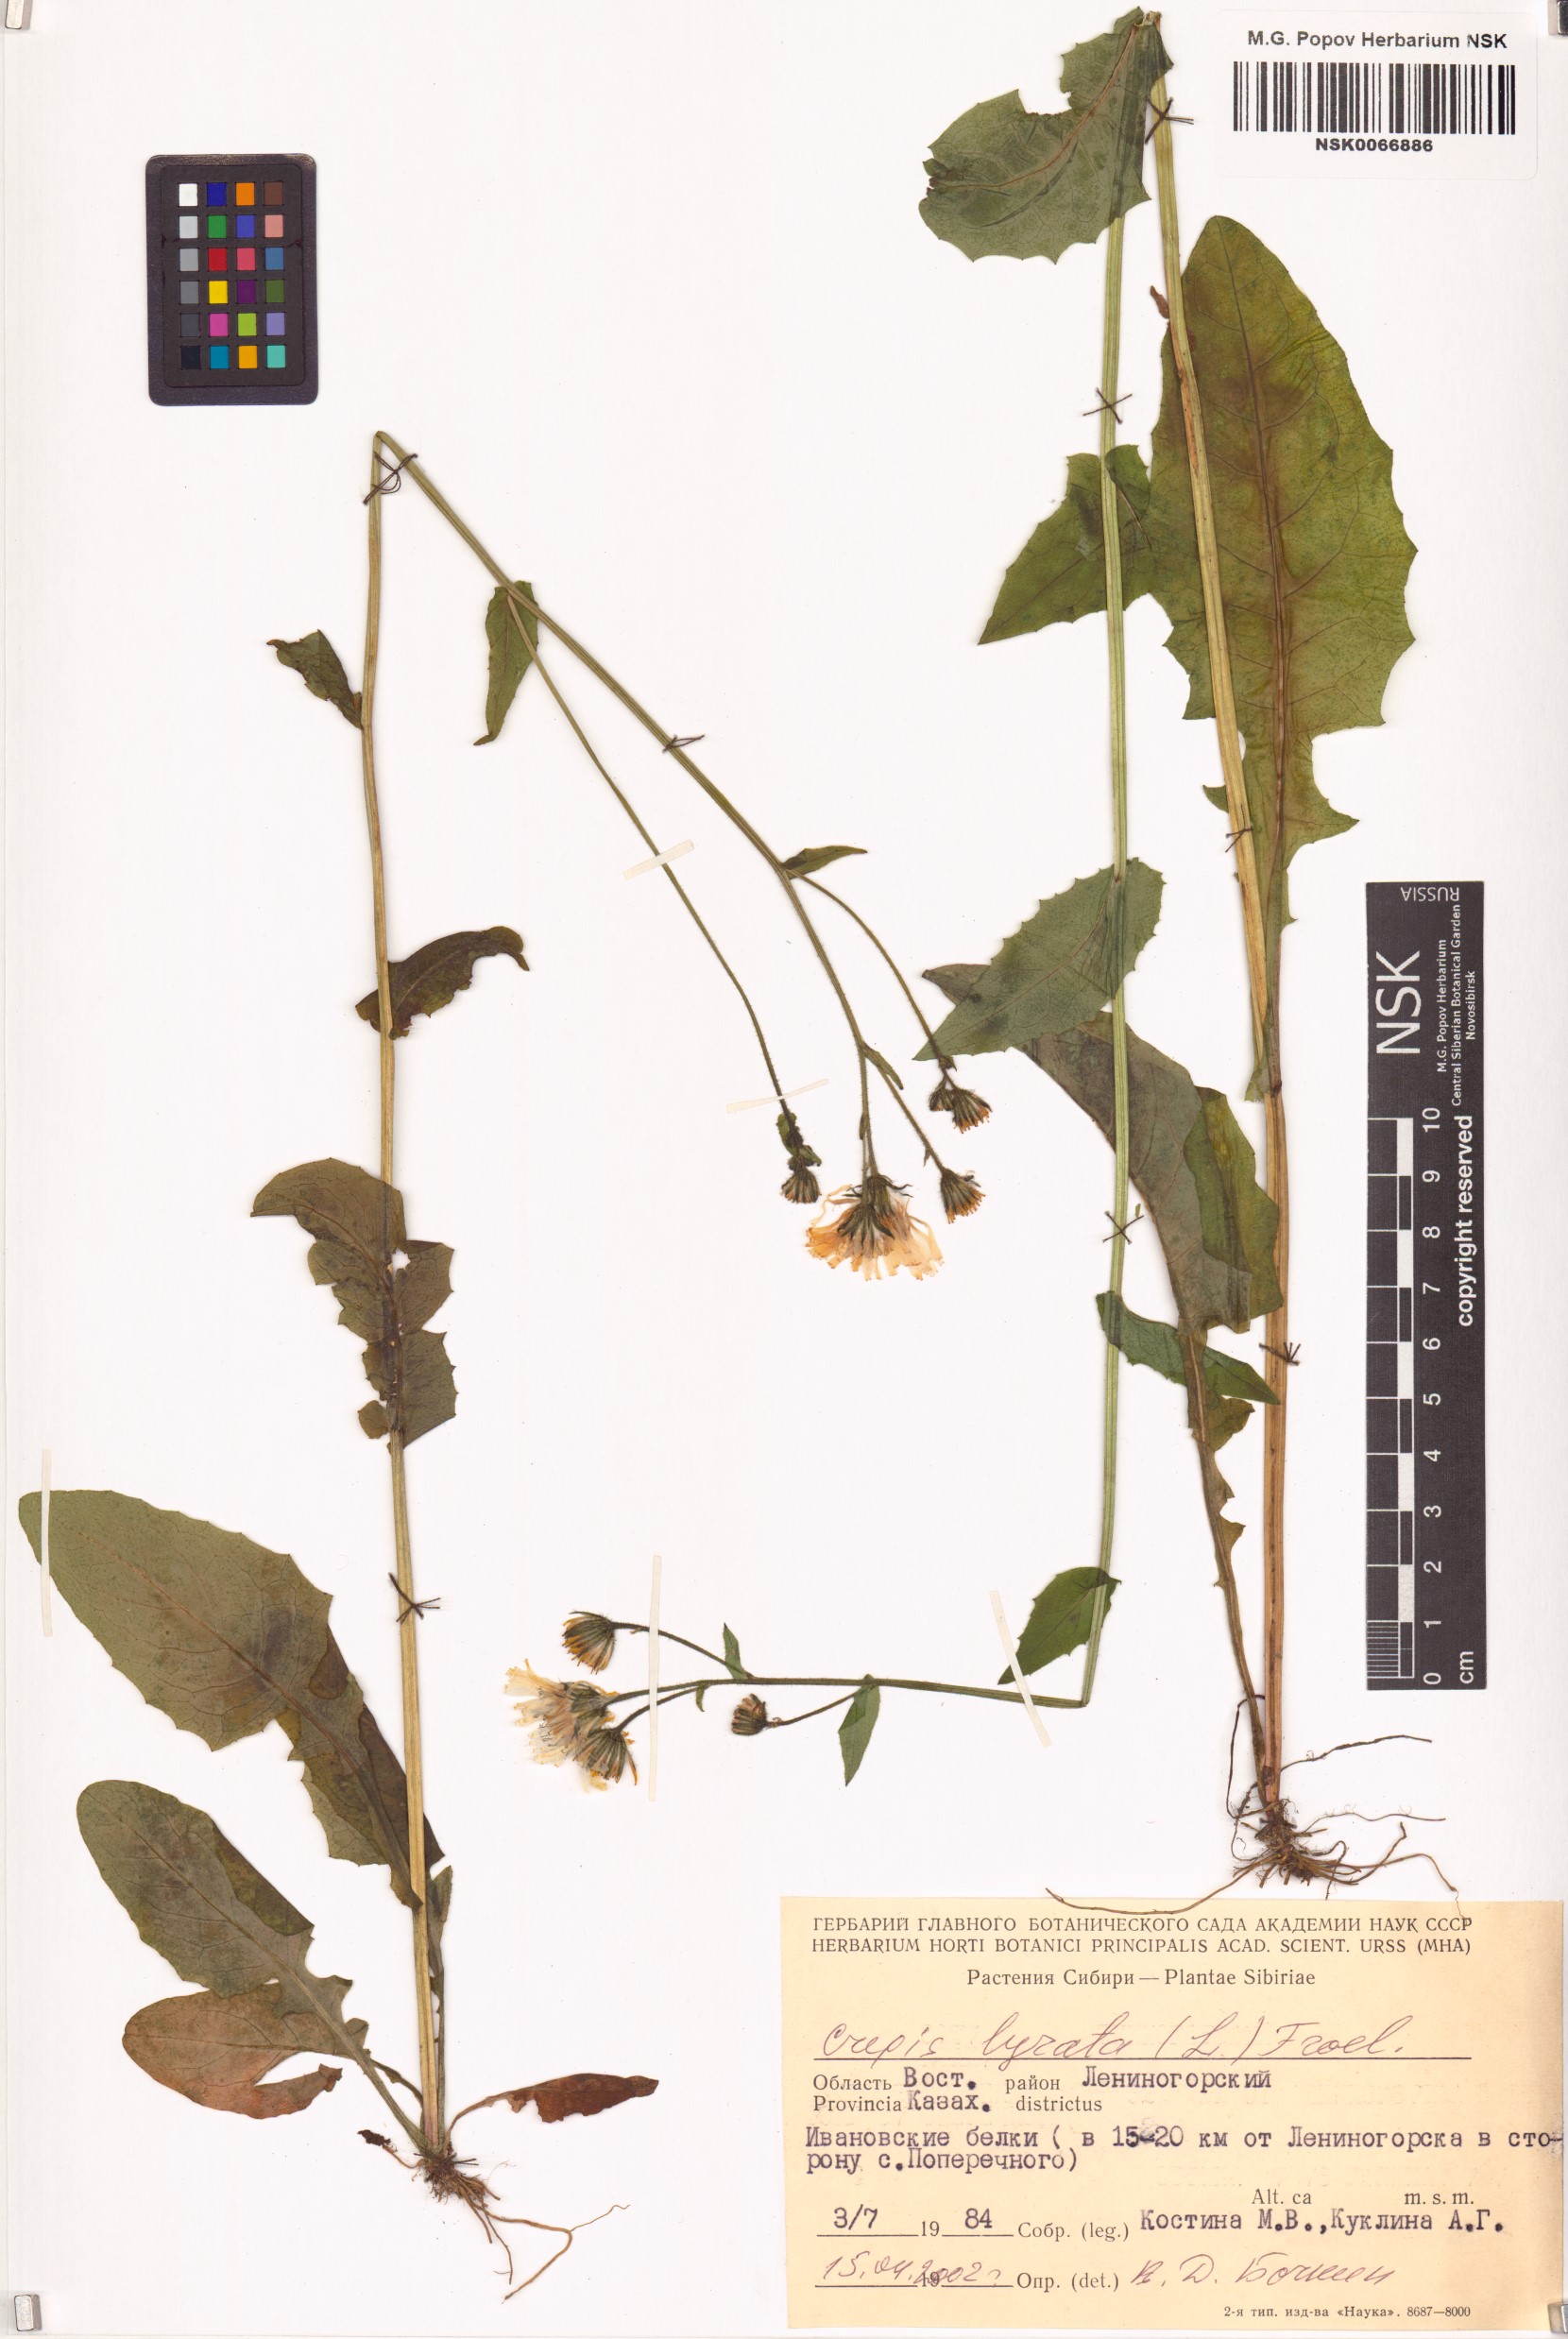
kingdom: Plantae
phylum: Tracheophyta
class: Magnoliopsida
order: Asterales
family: Asteraceae
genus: Crepis
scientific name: Crepis lyrata
